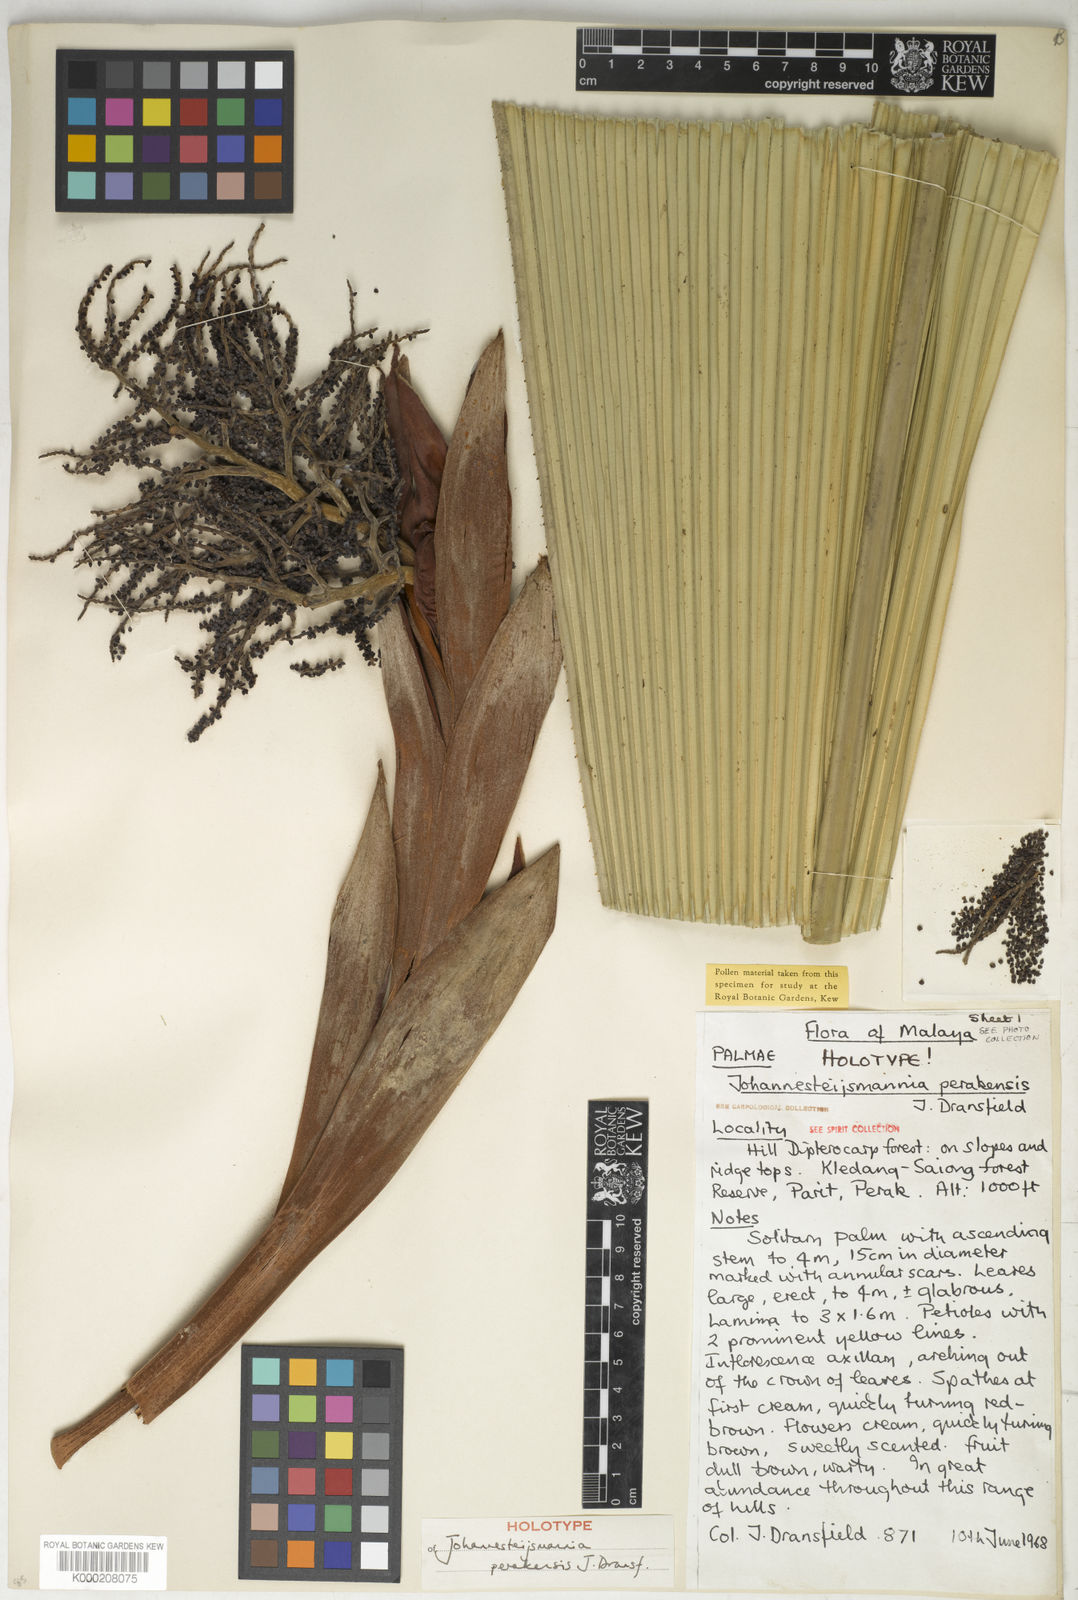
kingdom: Plantae
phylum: Tracheophyta
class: Liliopsida
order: Arecales
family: Arecaceae
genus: Johannesteijsmannia
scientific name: Johannesteijsmannia perakensis
